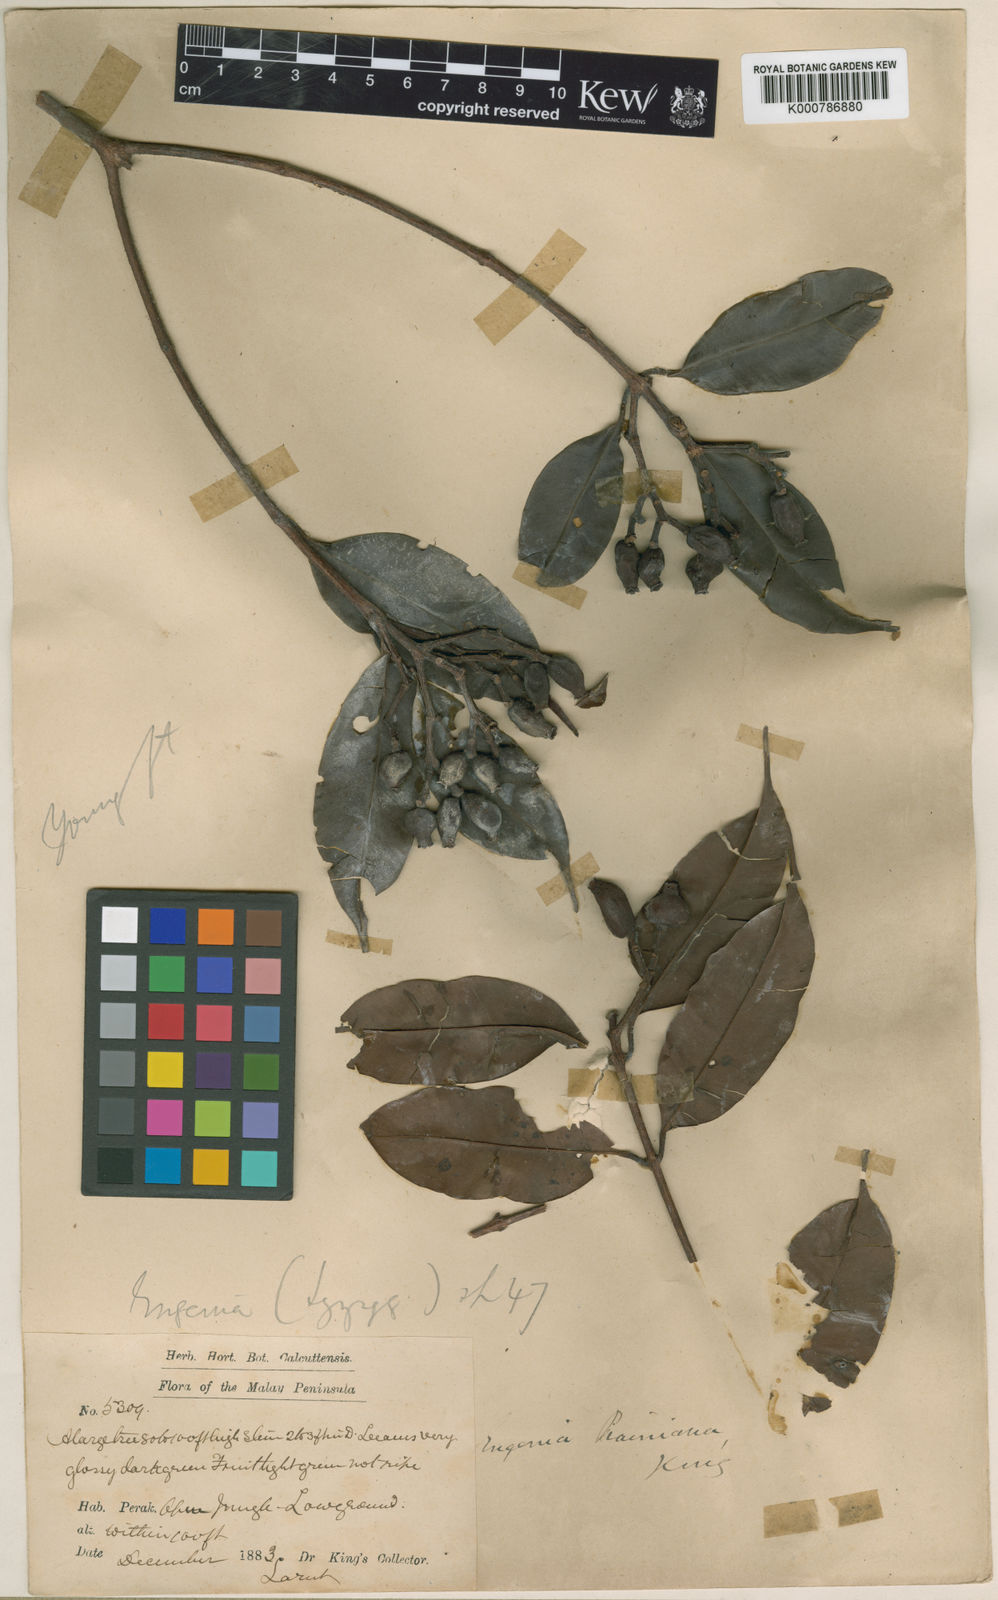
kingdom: Plantae
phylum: Tracheophyta
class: Magnoliopsida
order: Myrtales
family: Myrtaceae
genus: Syzygium
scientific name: Syzygium praineanum
